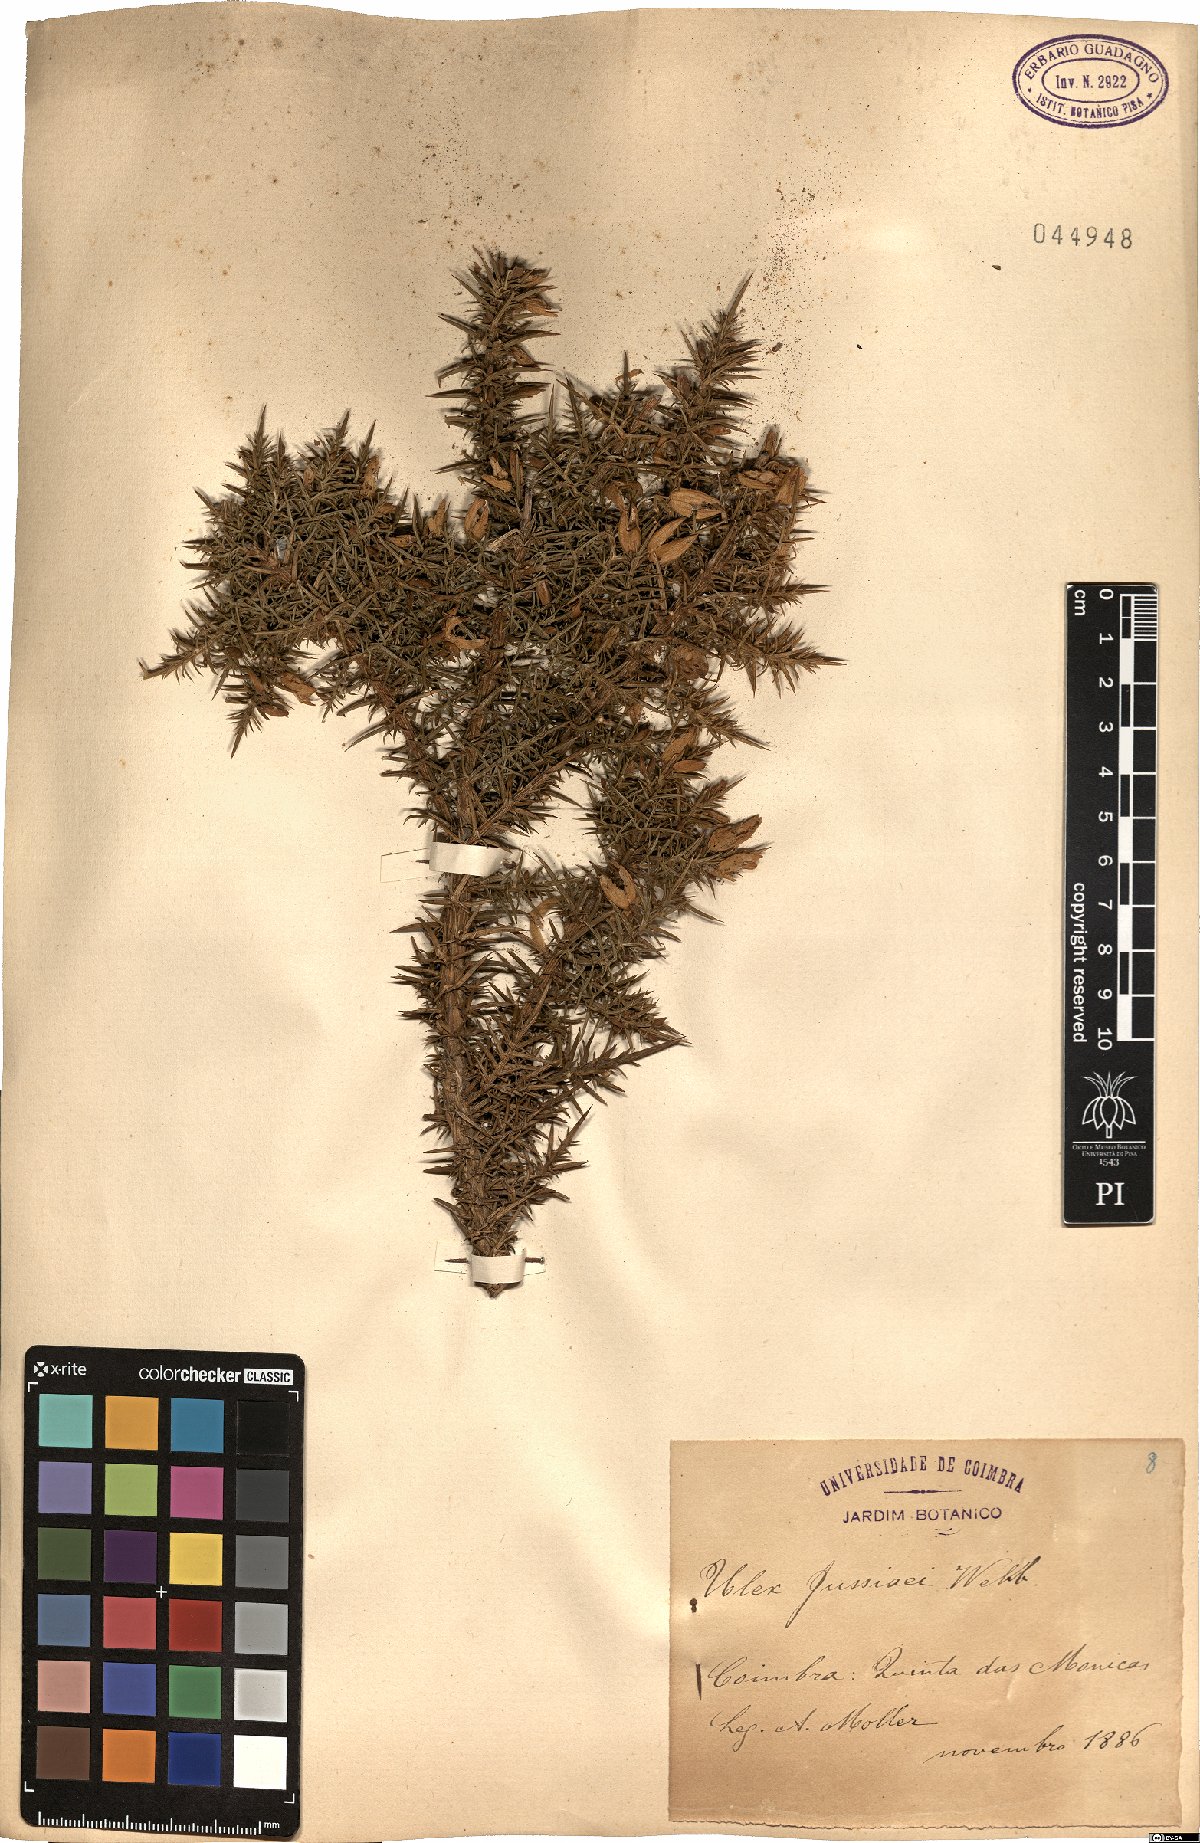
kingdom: Plantae
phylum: Tracheophyta
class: Magnoliopsida
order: Fabales
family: Fabaceae
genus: Ulex
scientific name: Ulex jussiaei
